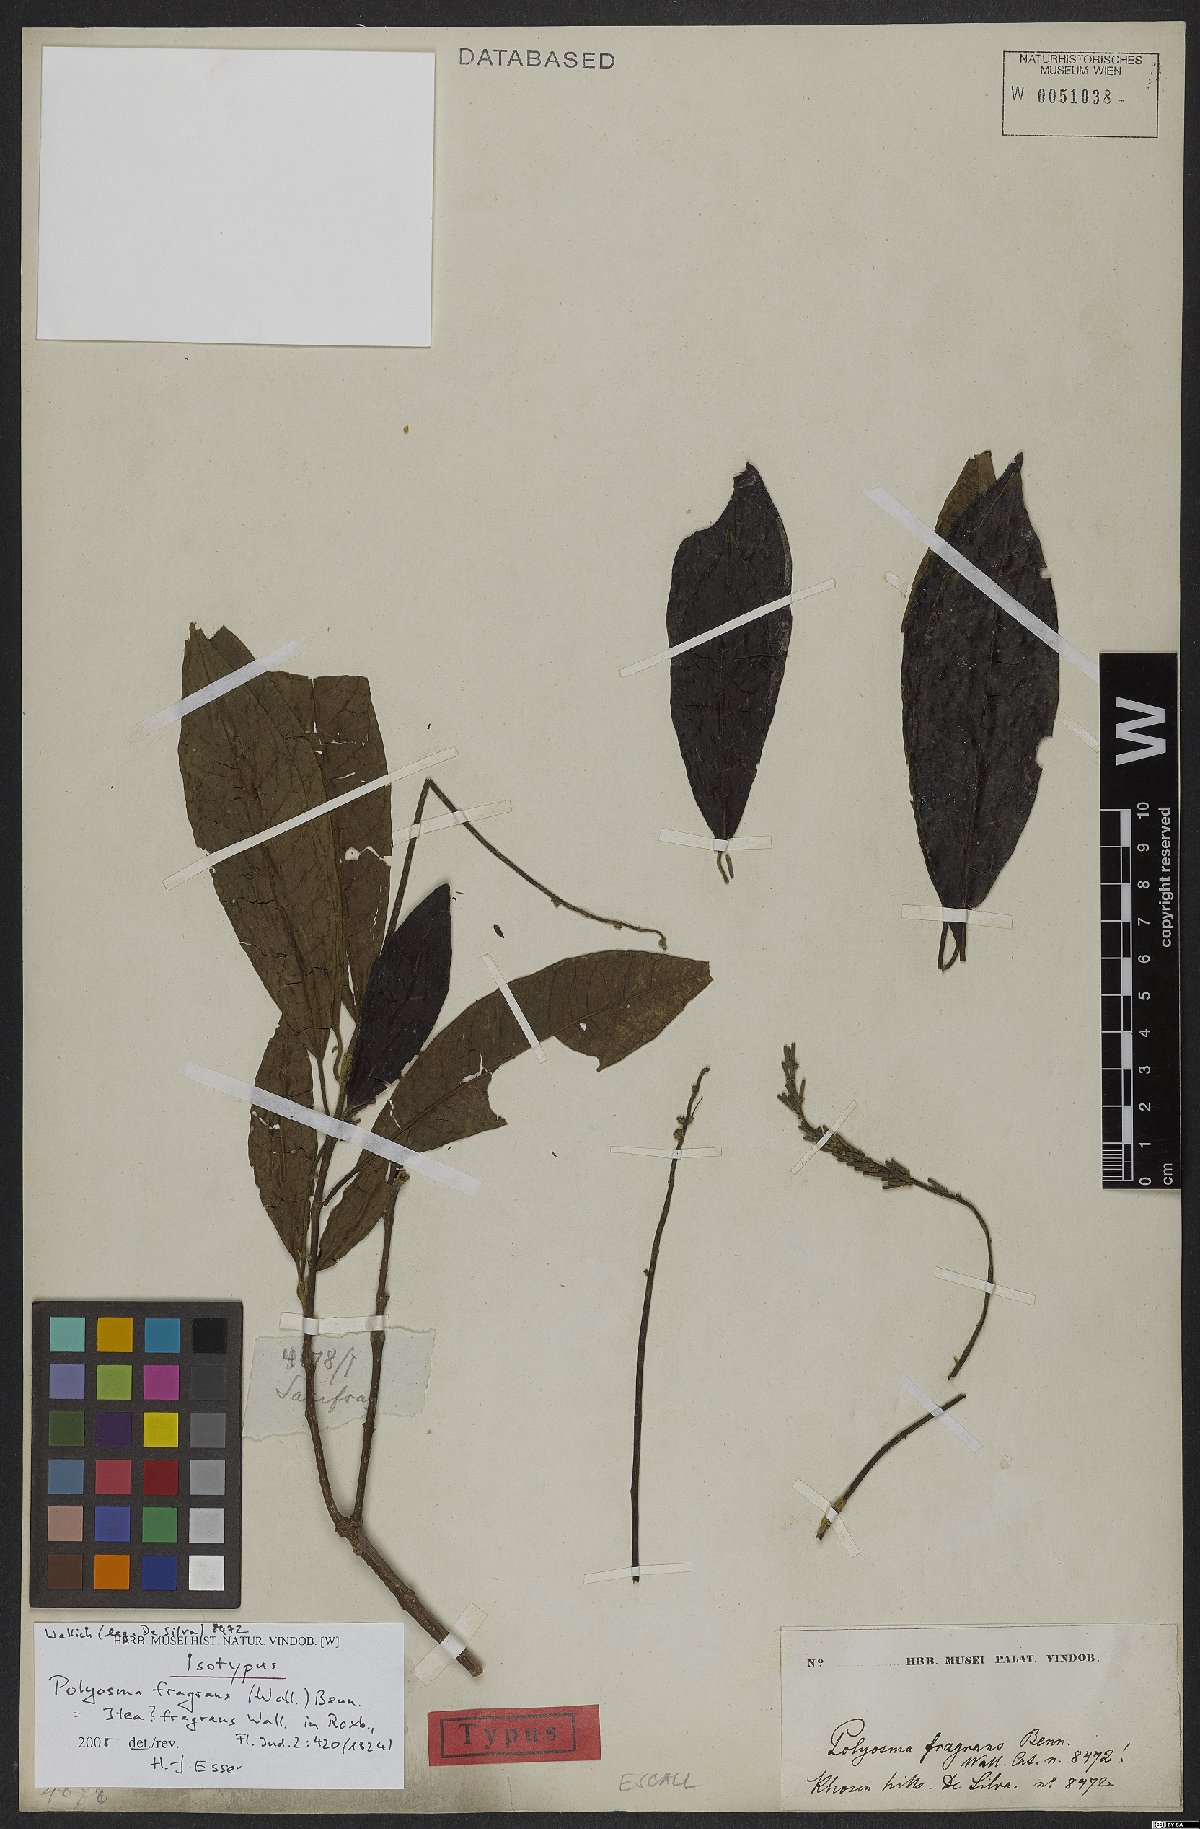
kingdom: Plantae
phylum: Tracheophyta
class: Magnoliopsida
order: Escalloniales
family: Escalloniaceae
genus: Polyosma
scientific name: Polyosma fragrans
